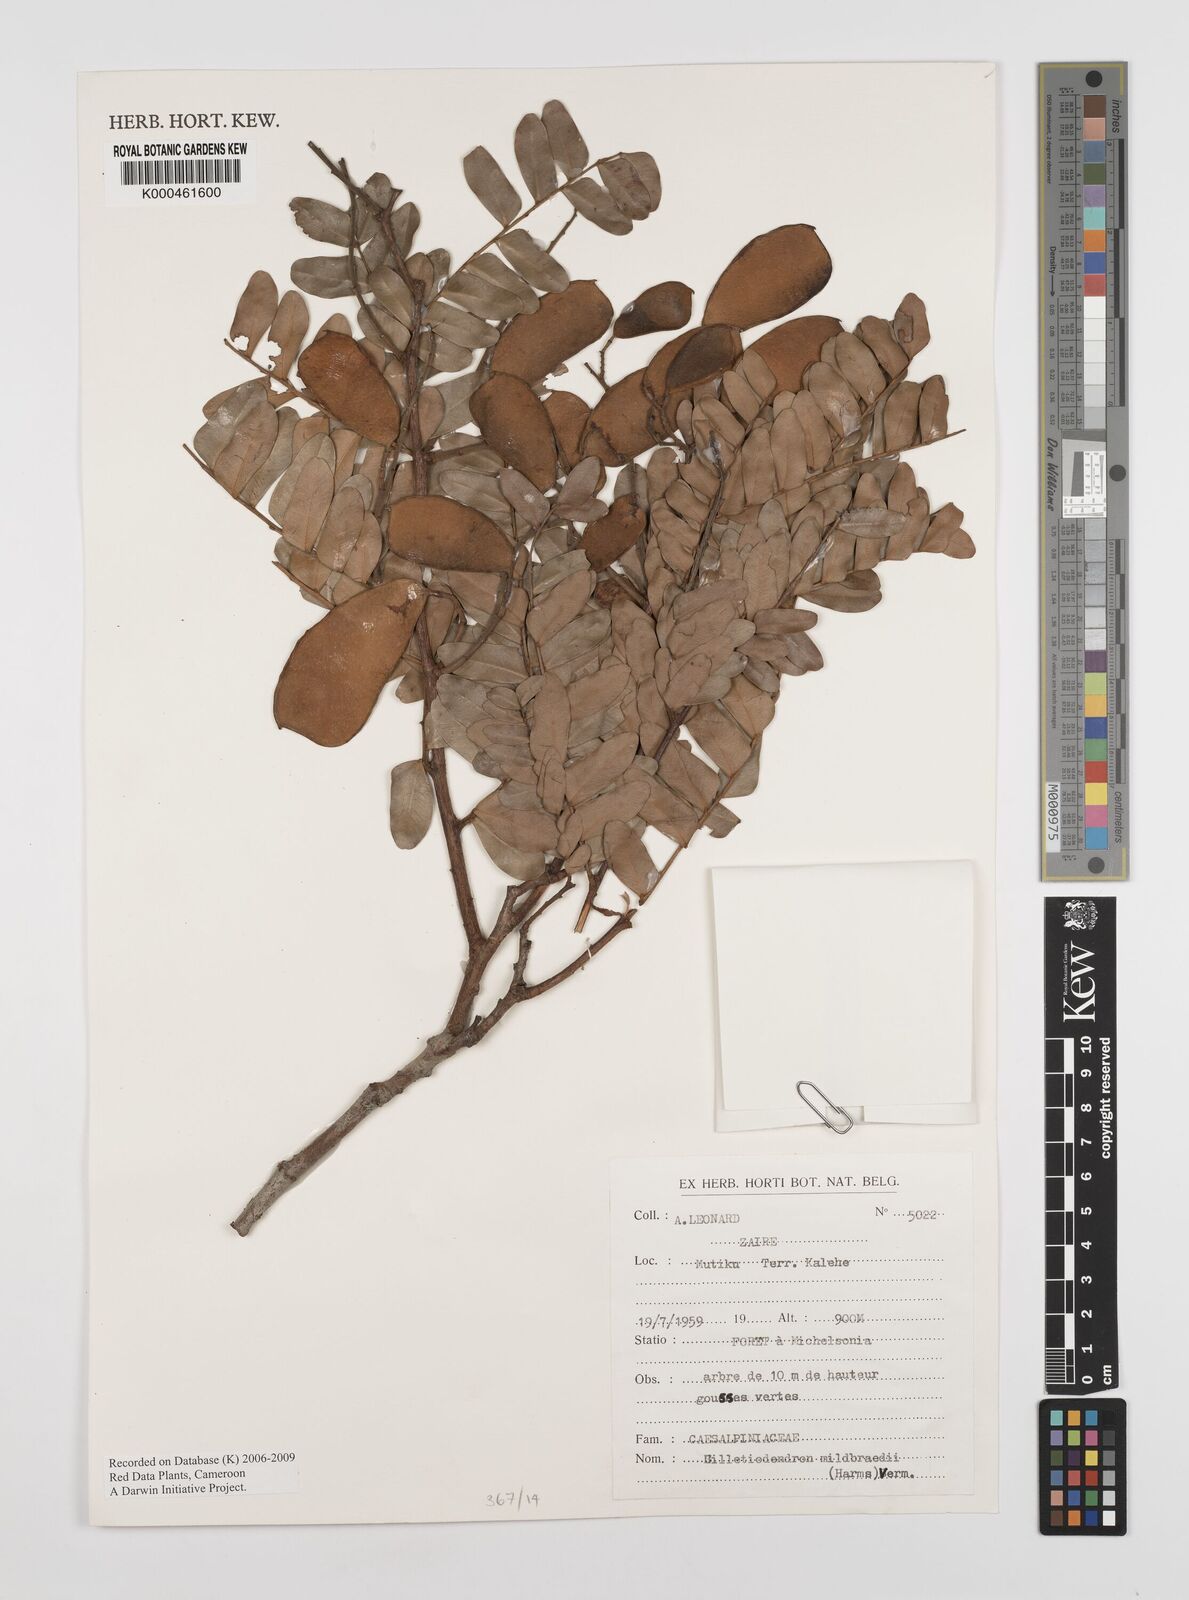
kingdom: Plantae
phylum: Tracheophyta
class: Magnoliopsida
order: Fabales
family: Fabaceae
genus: Gilletiodendron
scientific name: Gilletiodendron mildbraedii
